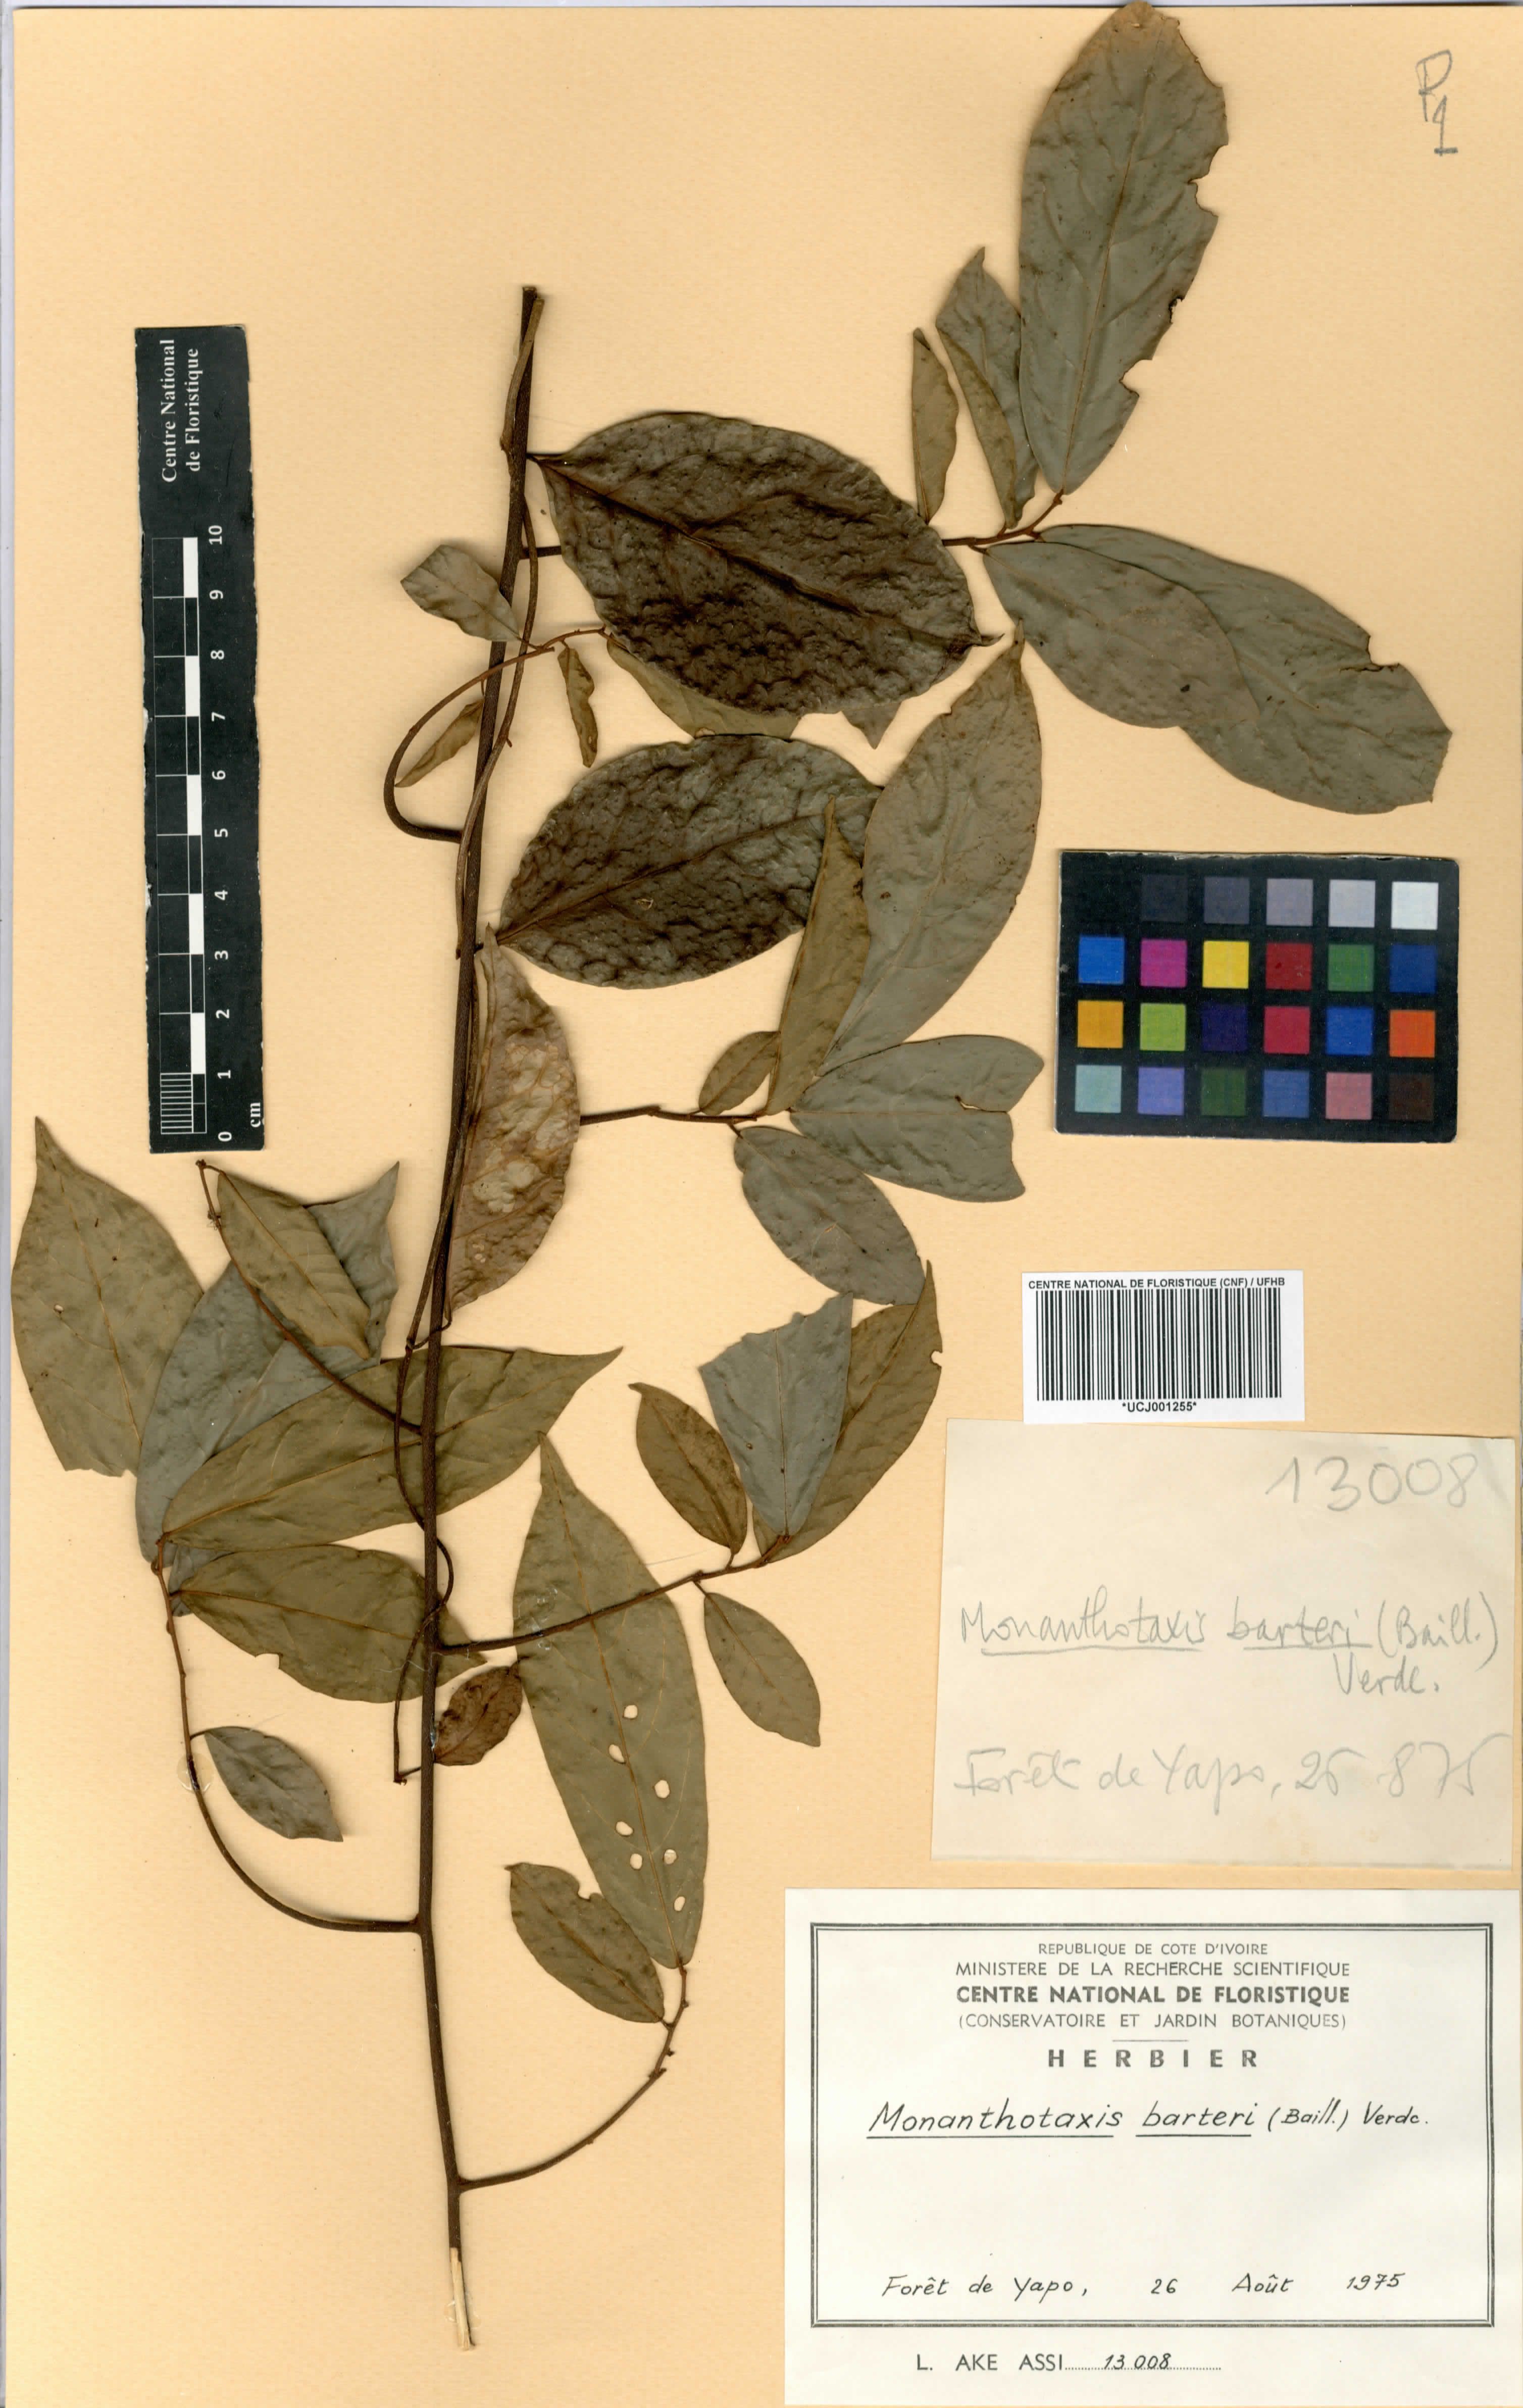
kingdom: Plantae
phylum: Tracheophyta
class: Magnoliopsida
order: Magnoliales
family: Annonaceae
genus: Monanthotaxis
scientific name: Monanthotaxis barteri
